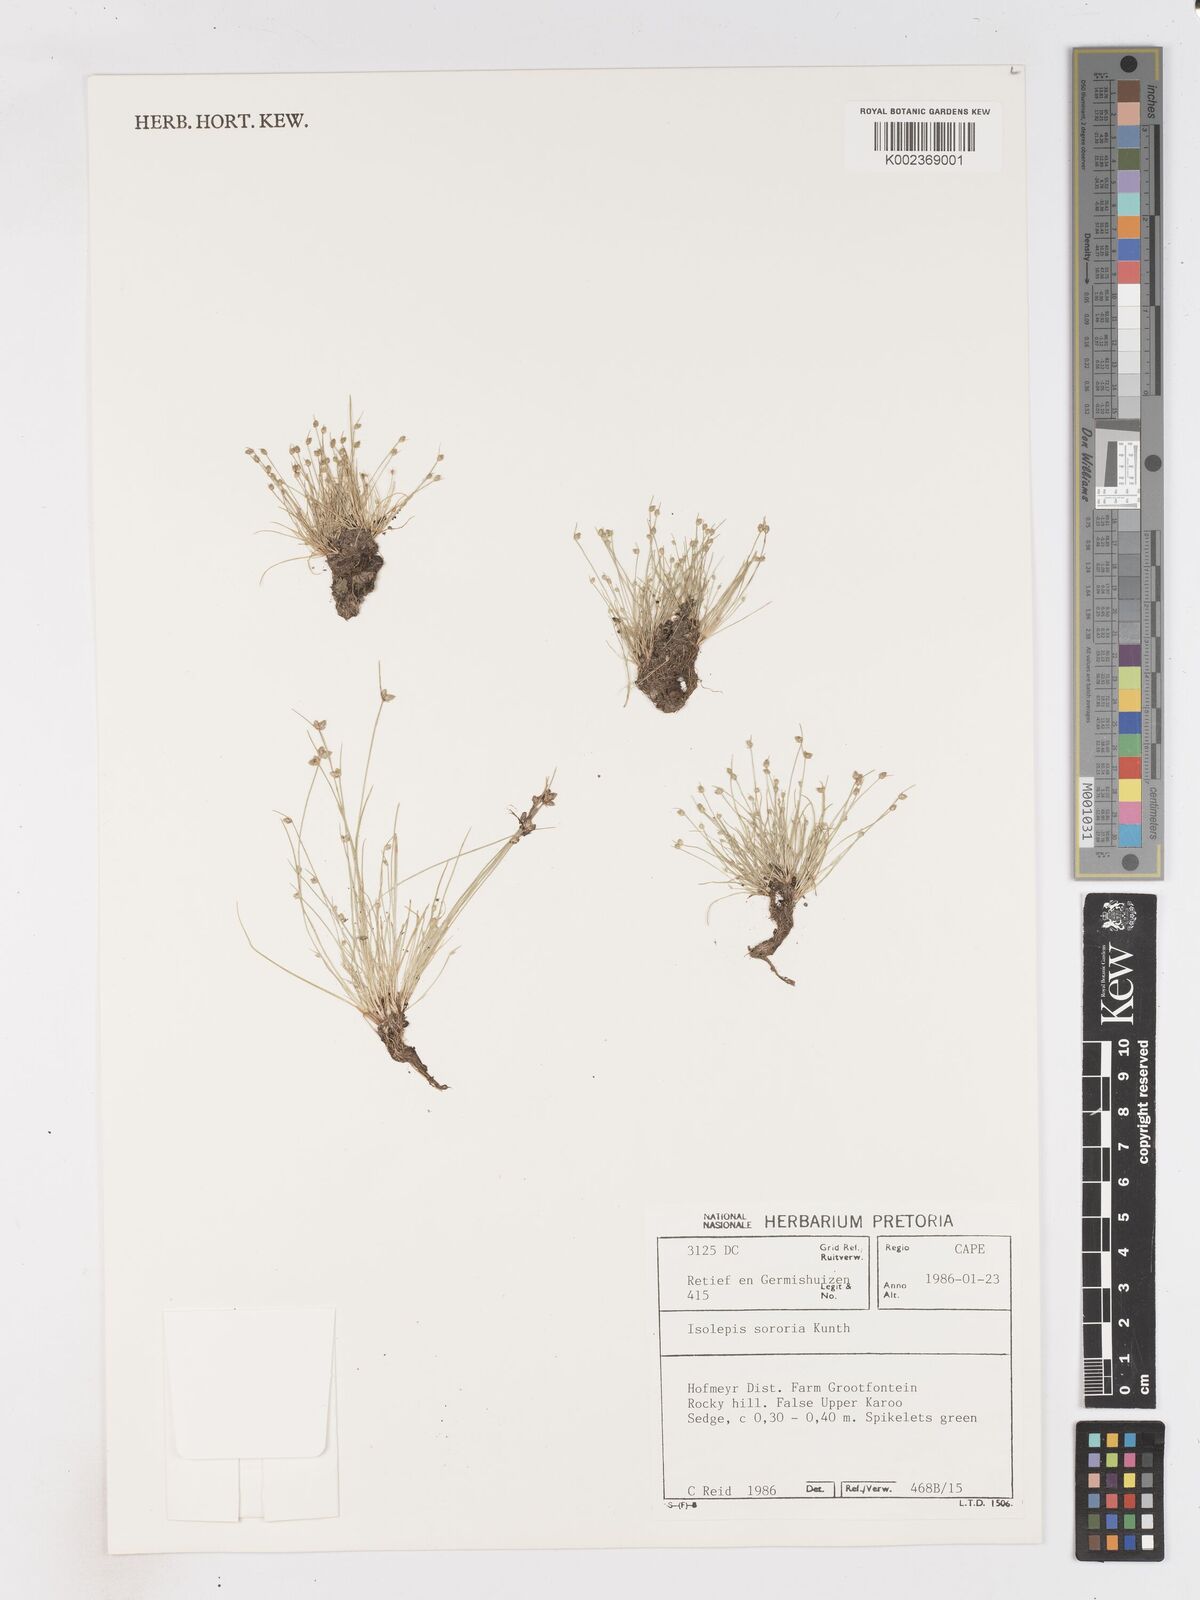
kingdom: Plantae
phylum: Tracheophyta
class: Liliopsida
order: Poales
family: Cyperaceae
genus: Isolepis
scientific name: Isolepis setacea
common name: Bristle club-rush
